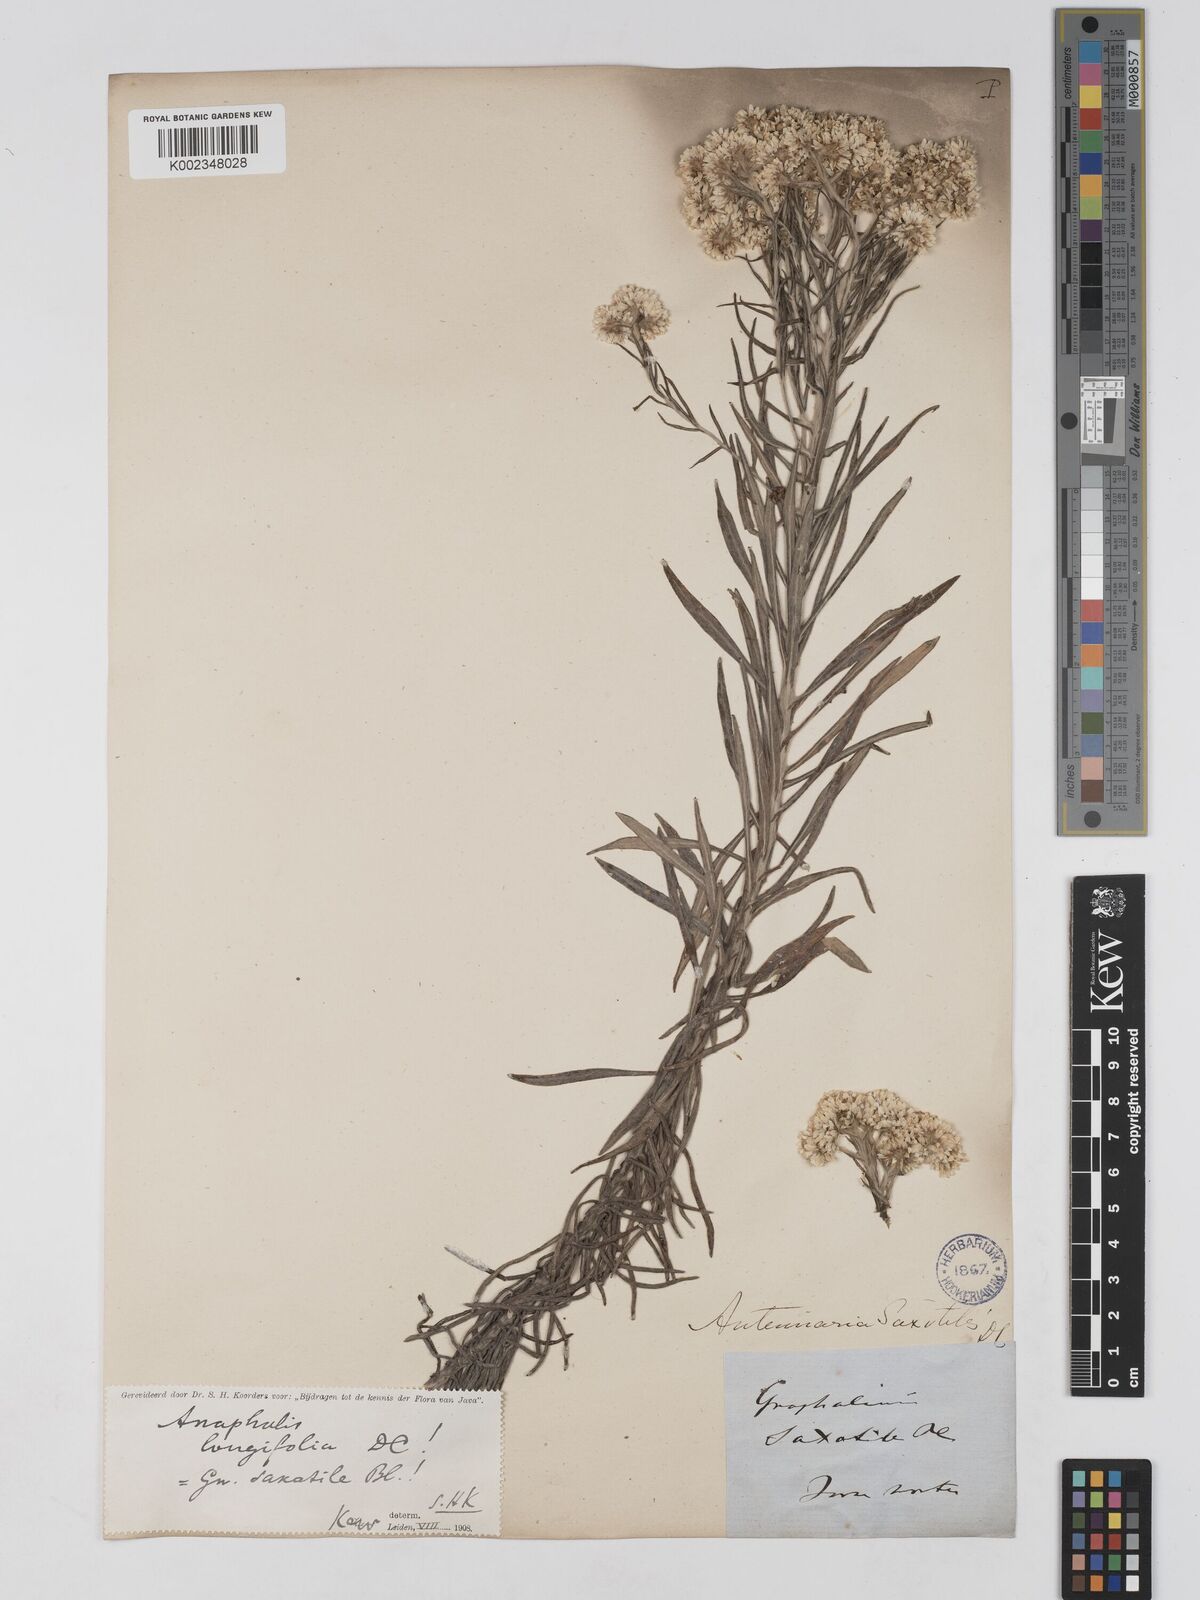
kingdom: Plantae
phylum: Tracheophyta
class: Magnoliopsida
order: Asterales
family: Asteraceae
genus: Anaphalis
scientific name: Anaphalis longifolia
